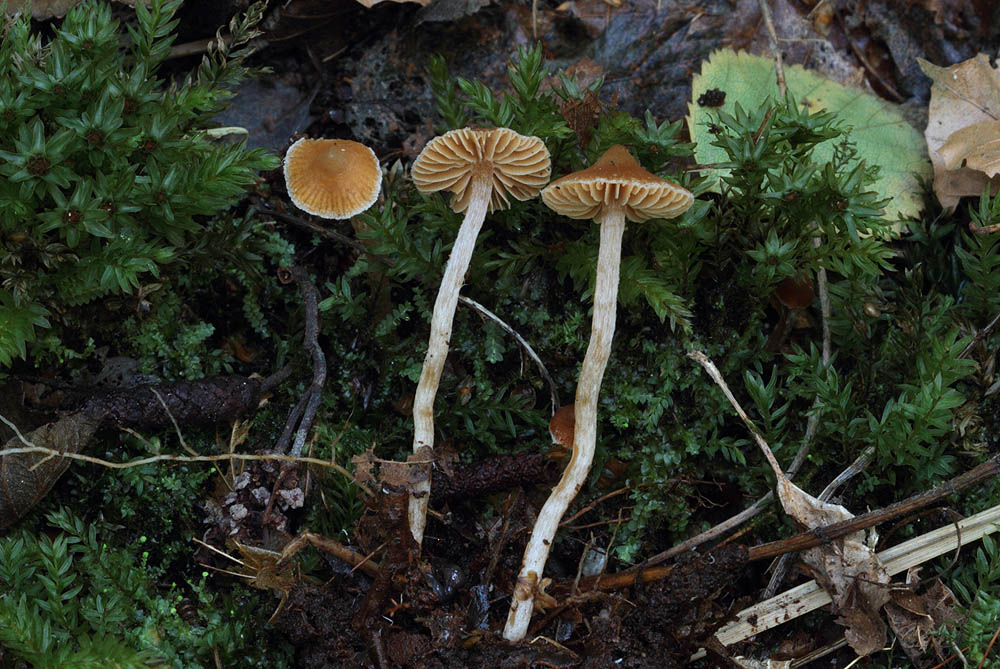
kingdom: Fungi
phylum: Basidiomycota
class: Agaricomycetes
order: Agaricales
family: Cortinariaceae
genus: Cortinarius
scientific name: Cortinarius acutus
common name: spids slørhat
